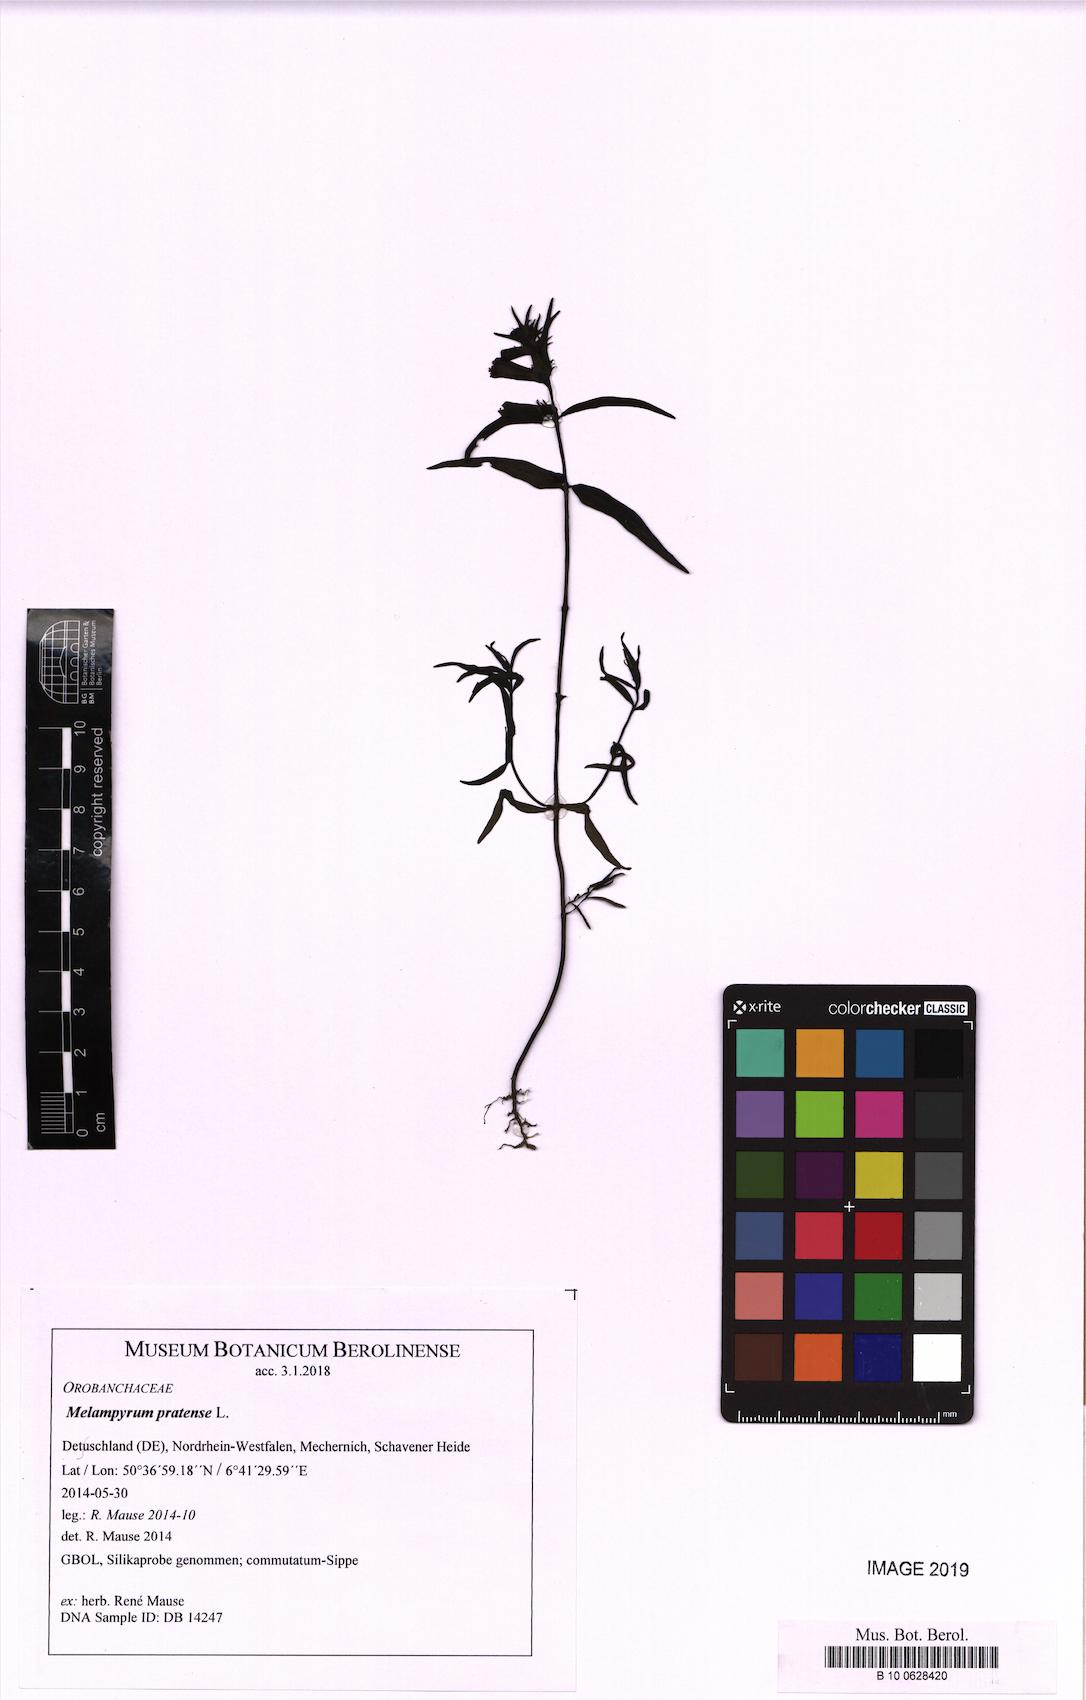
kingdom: Plantae
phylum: Tracheophyta
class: Magnoliopsida
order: Lamiales
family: Orobanchaceae
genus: Melampyrum
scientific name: Melampyrum pratense
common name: Common cow-wheat
